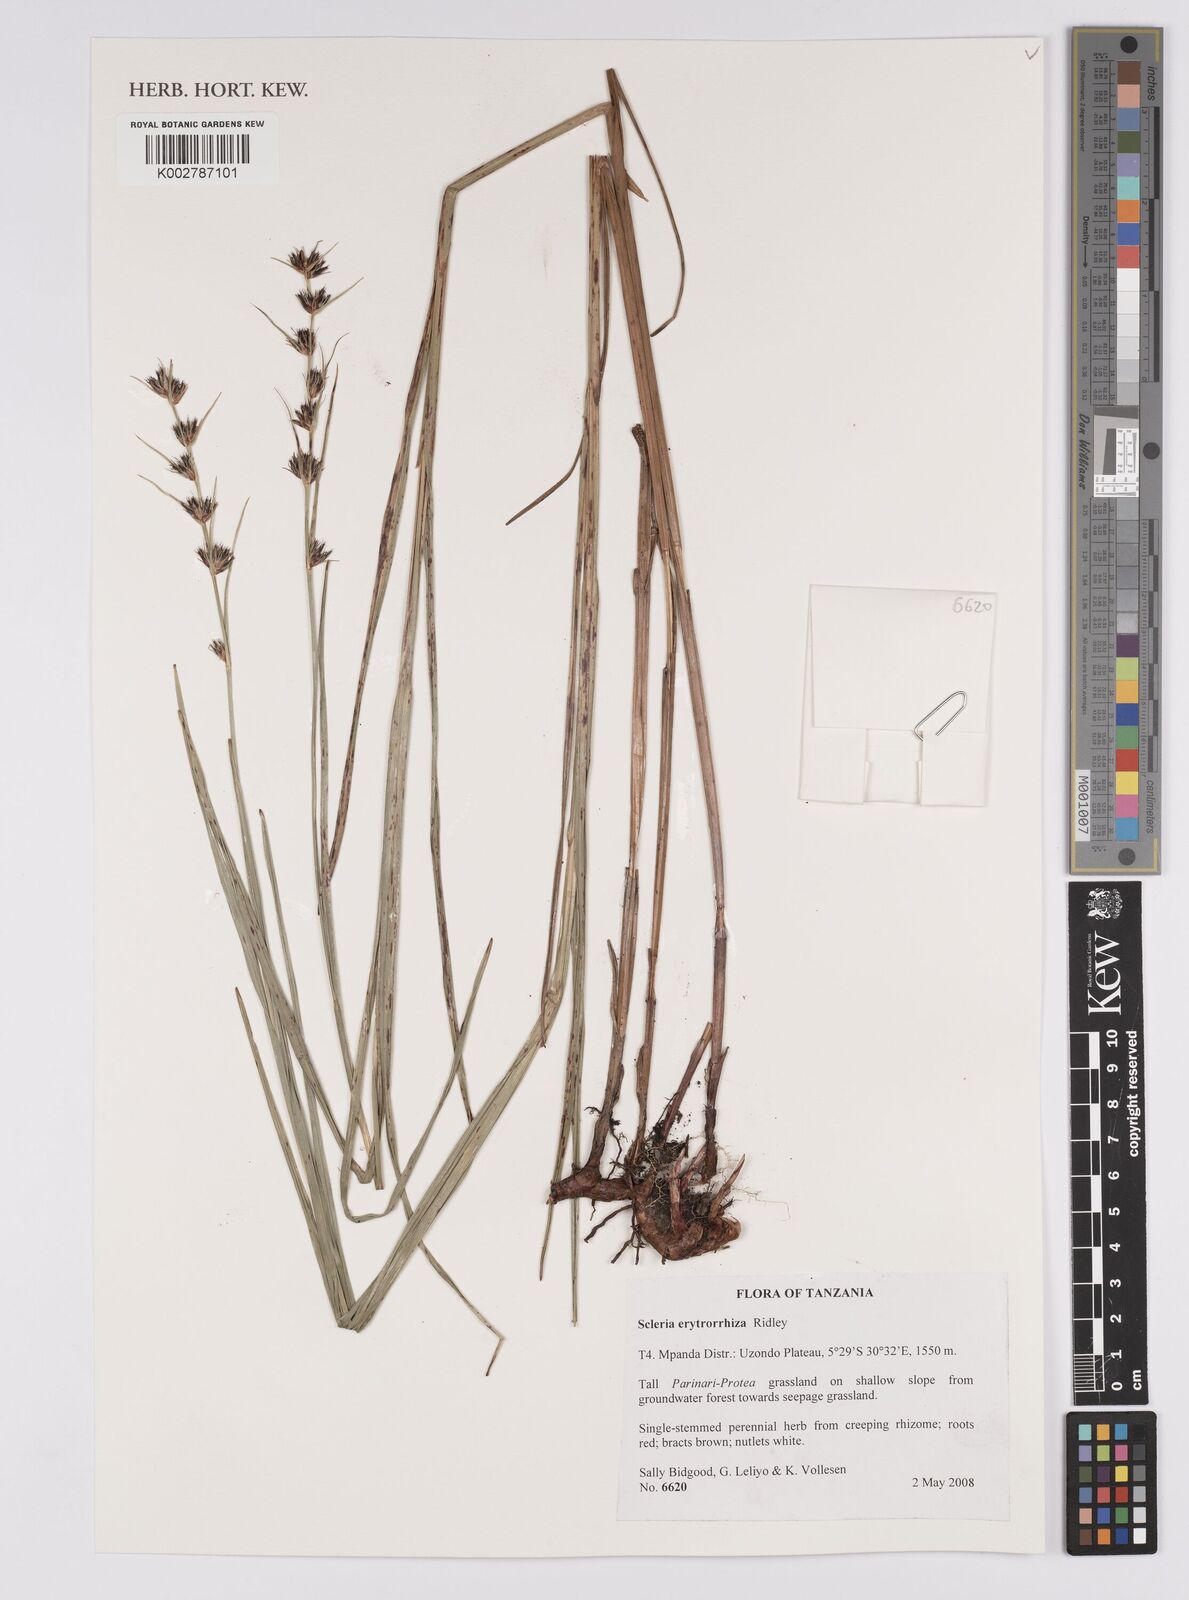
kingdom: Plantae
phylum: Tracheophyta
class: Liliopsida
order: Poales
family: Cyperaceae
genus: Scleria
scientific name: Scleria erythrorrhiza
